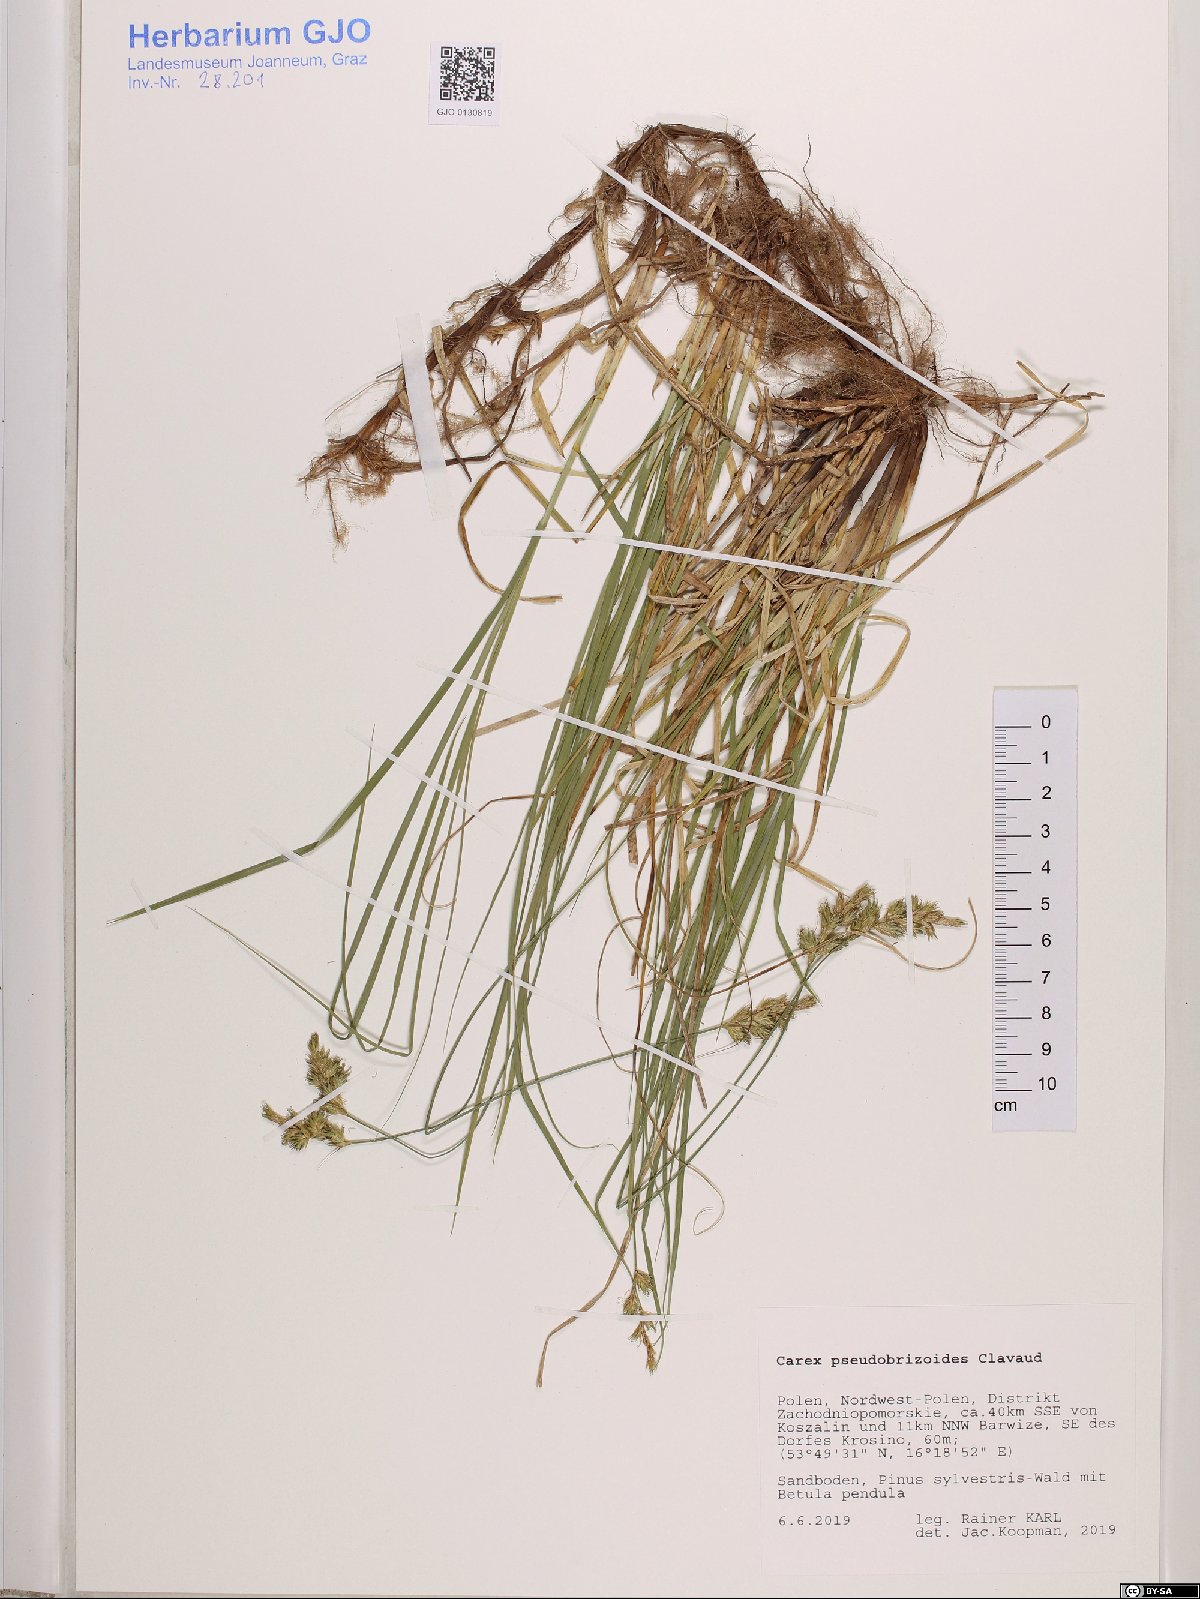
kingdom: Plantae
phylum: Tracheophyta
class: Liliopsida
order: Poales
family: Cyperaceae
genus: Carex
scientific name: Carex pseudobrizoides
